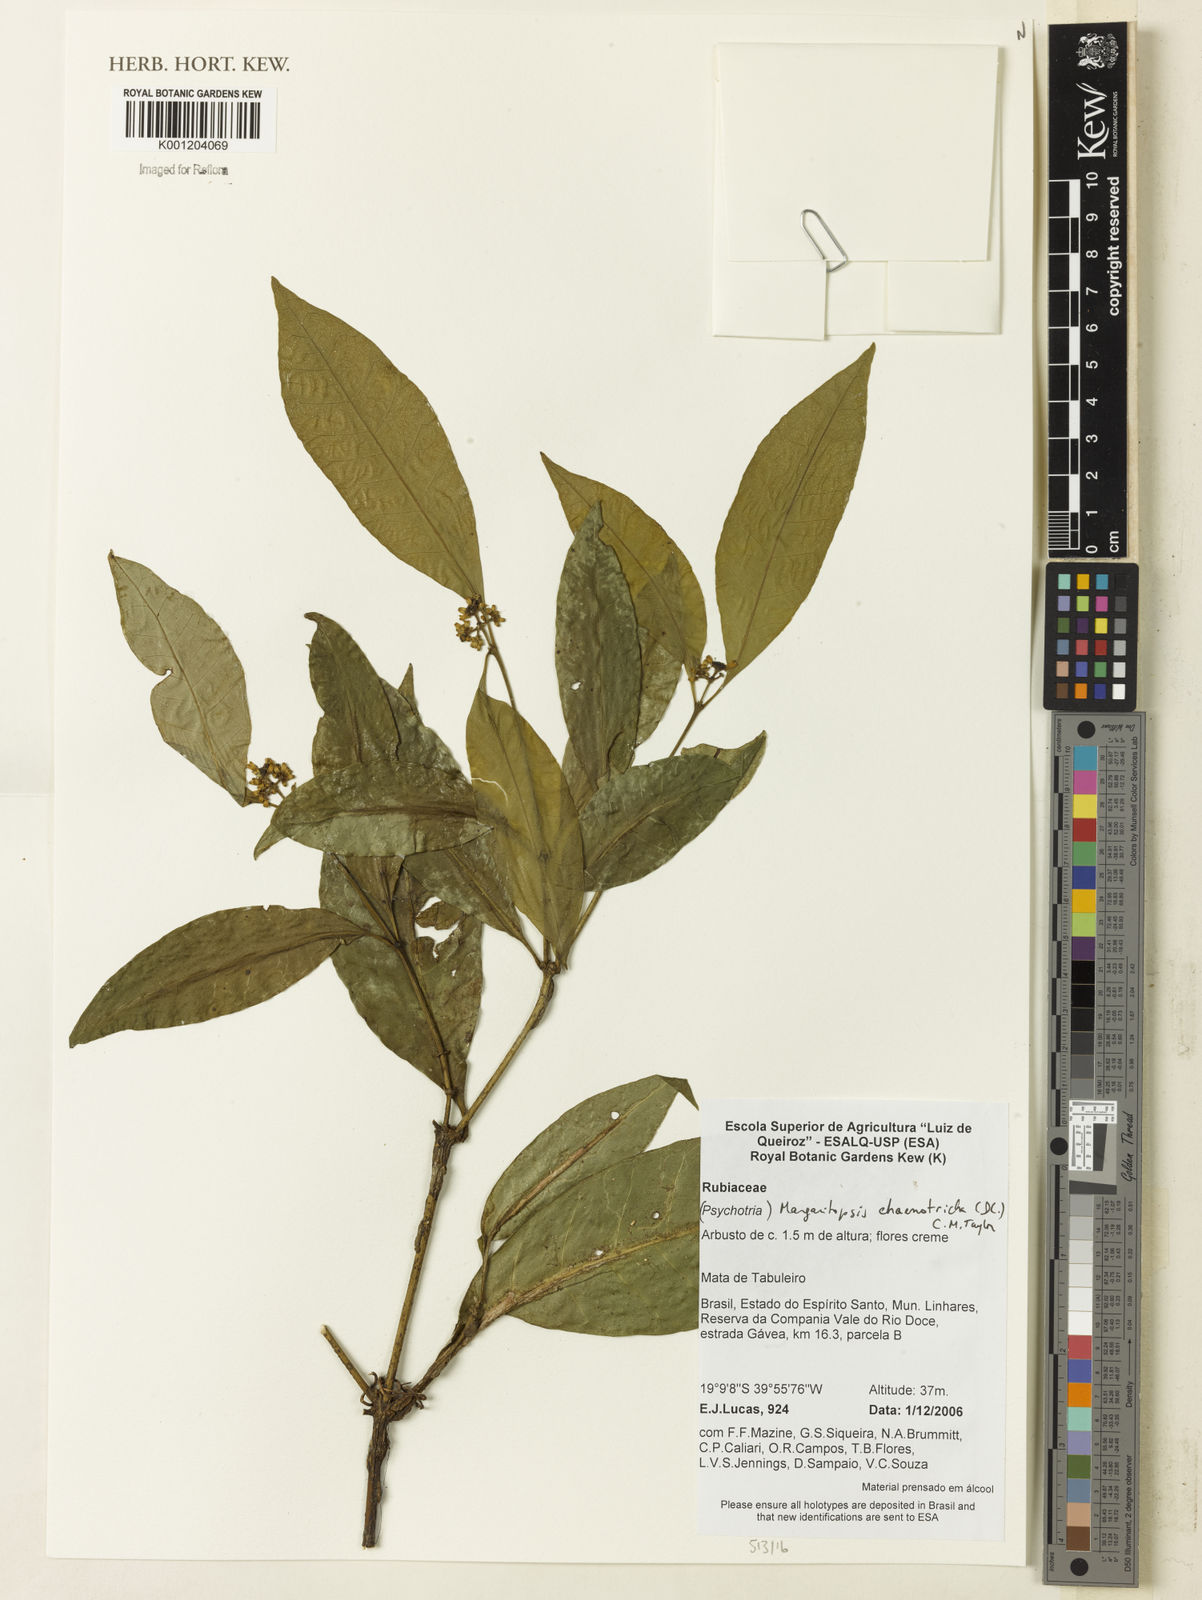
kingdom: Plantae
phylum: Tracheophyta
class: Magnoliopsida
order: Gentianales
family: Rubiaceae
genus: Eumachia
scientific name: Eumachia chaenotricha
